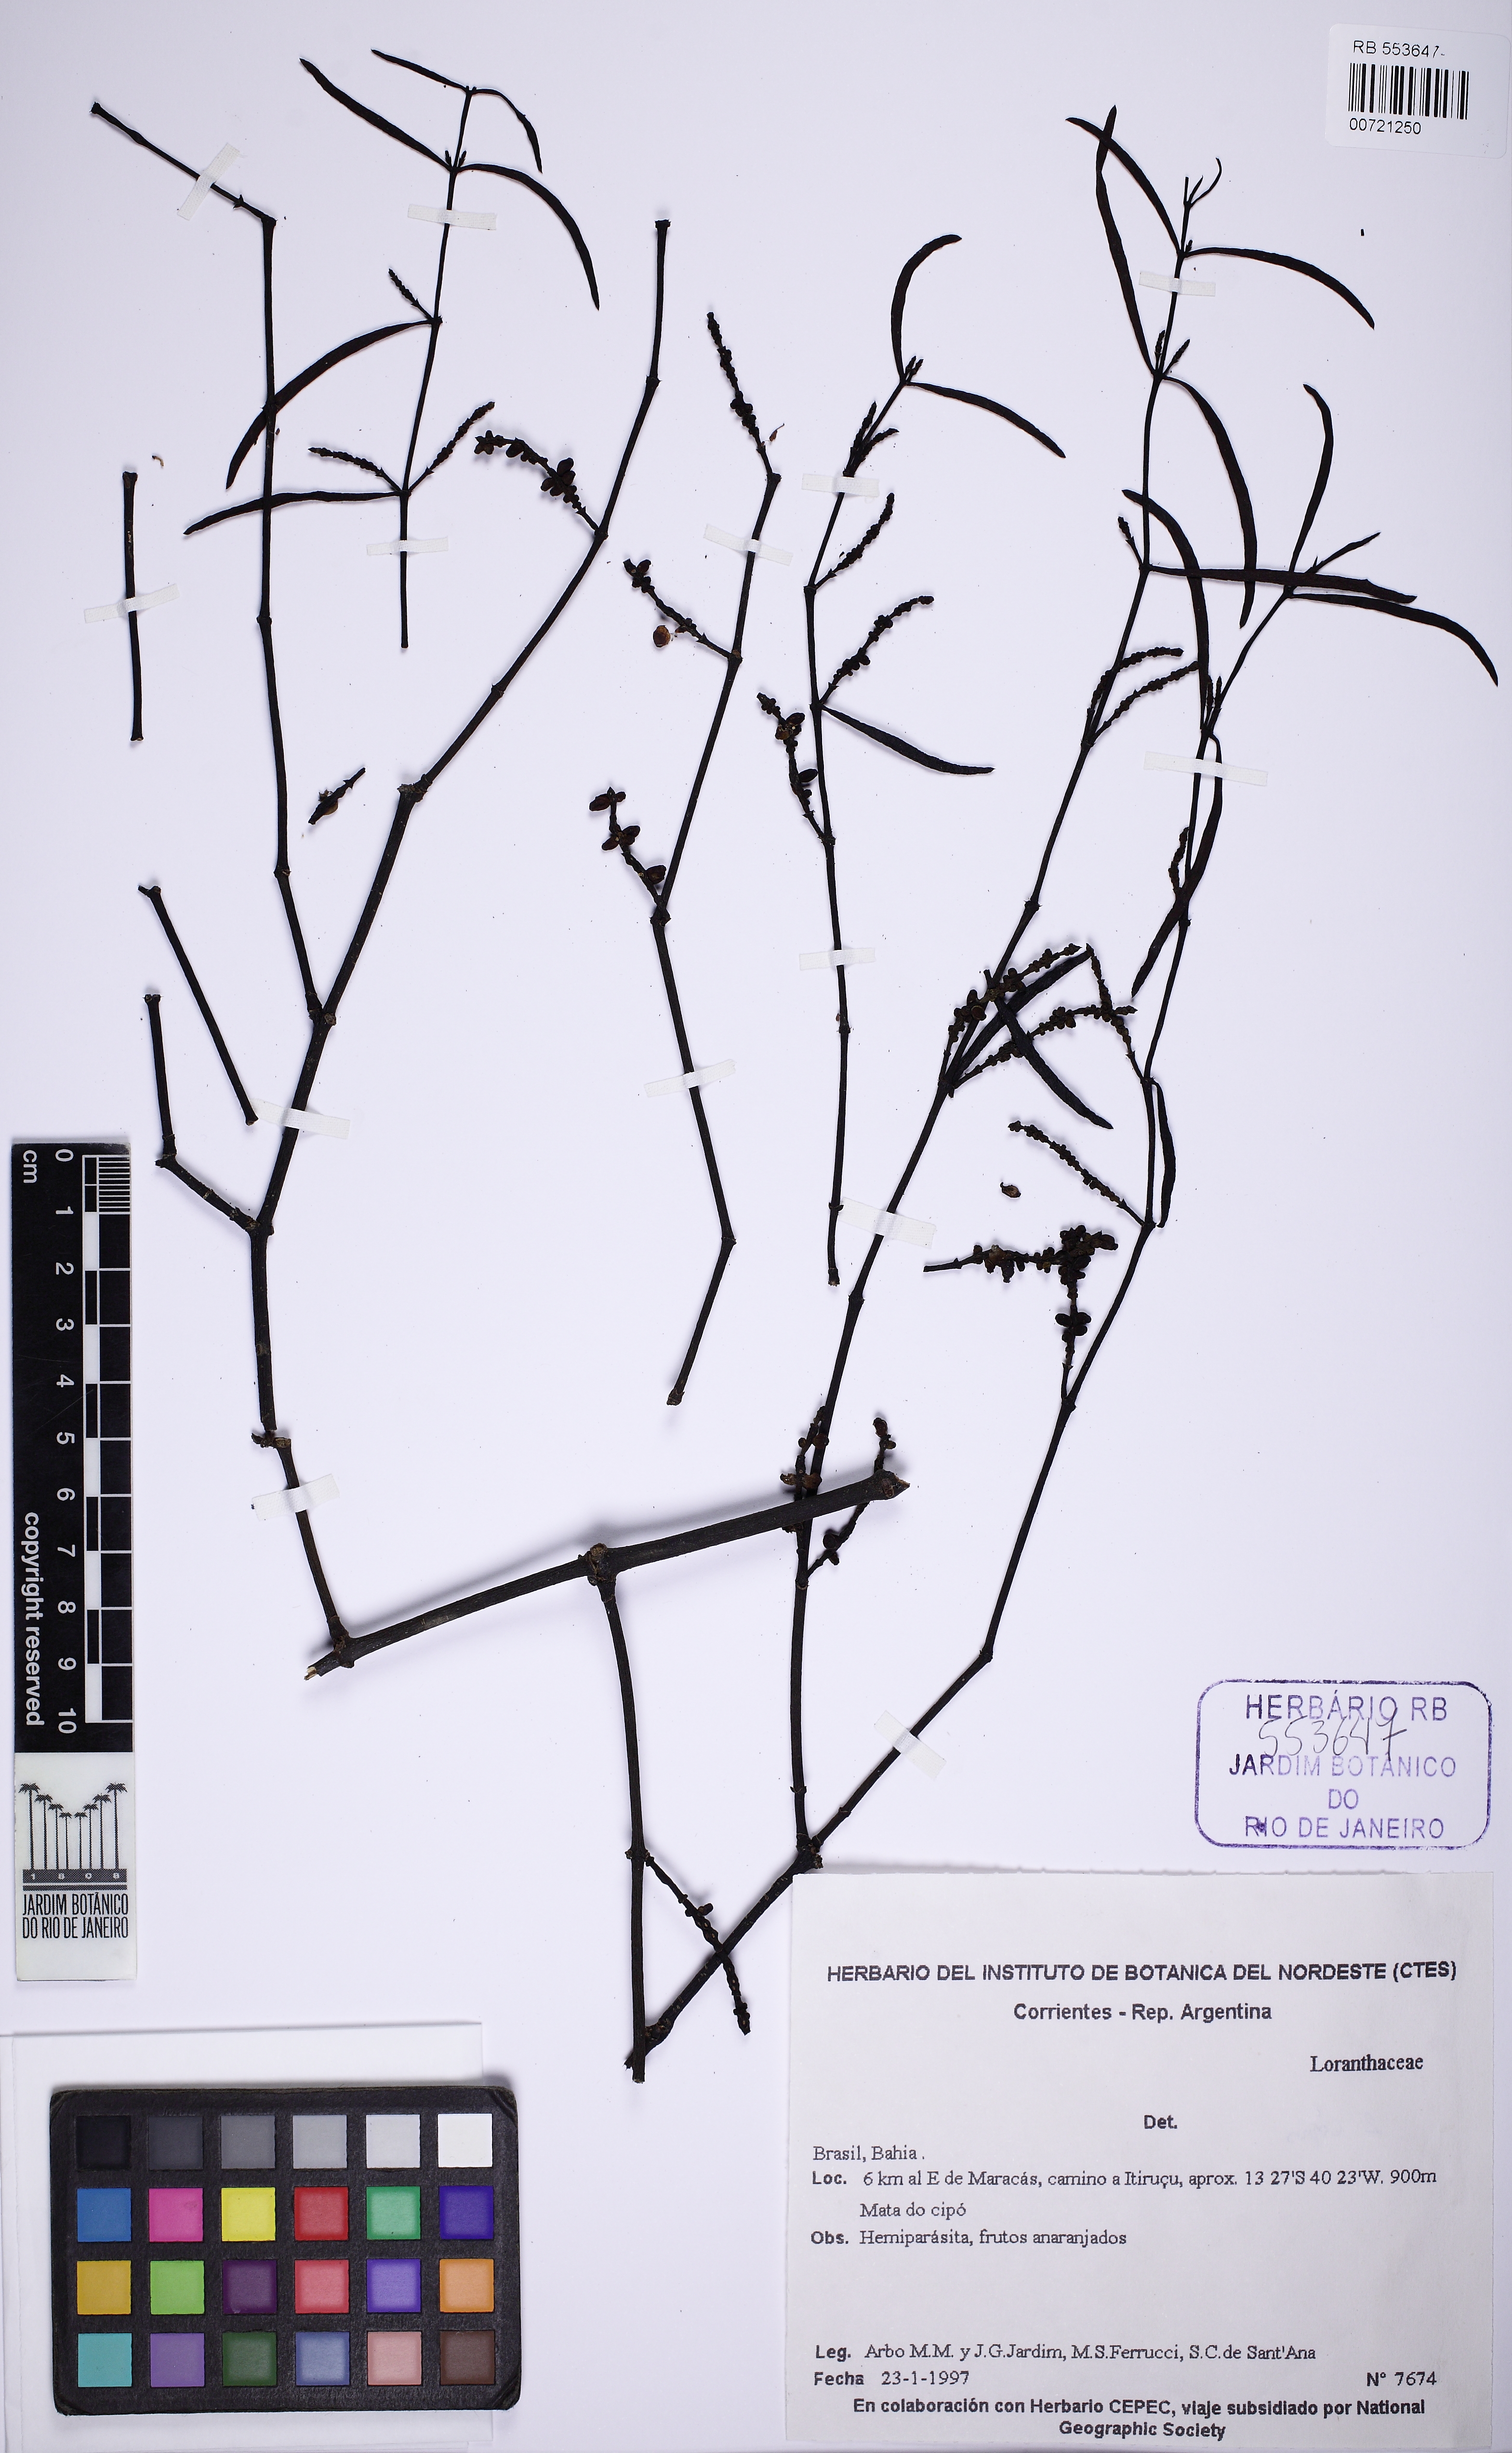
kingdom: Plantae
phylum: Tracheophyta
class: Magnoliopsida
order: Santalales
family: Viscaceae
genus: Phoradendron
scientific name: Phoradendron liga
